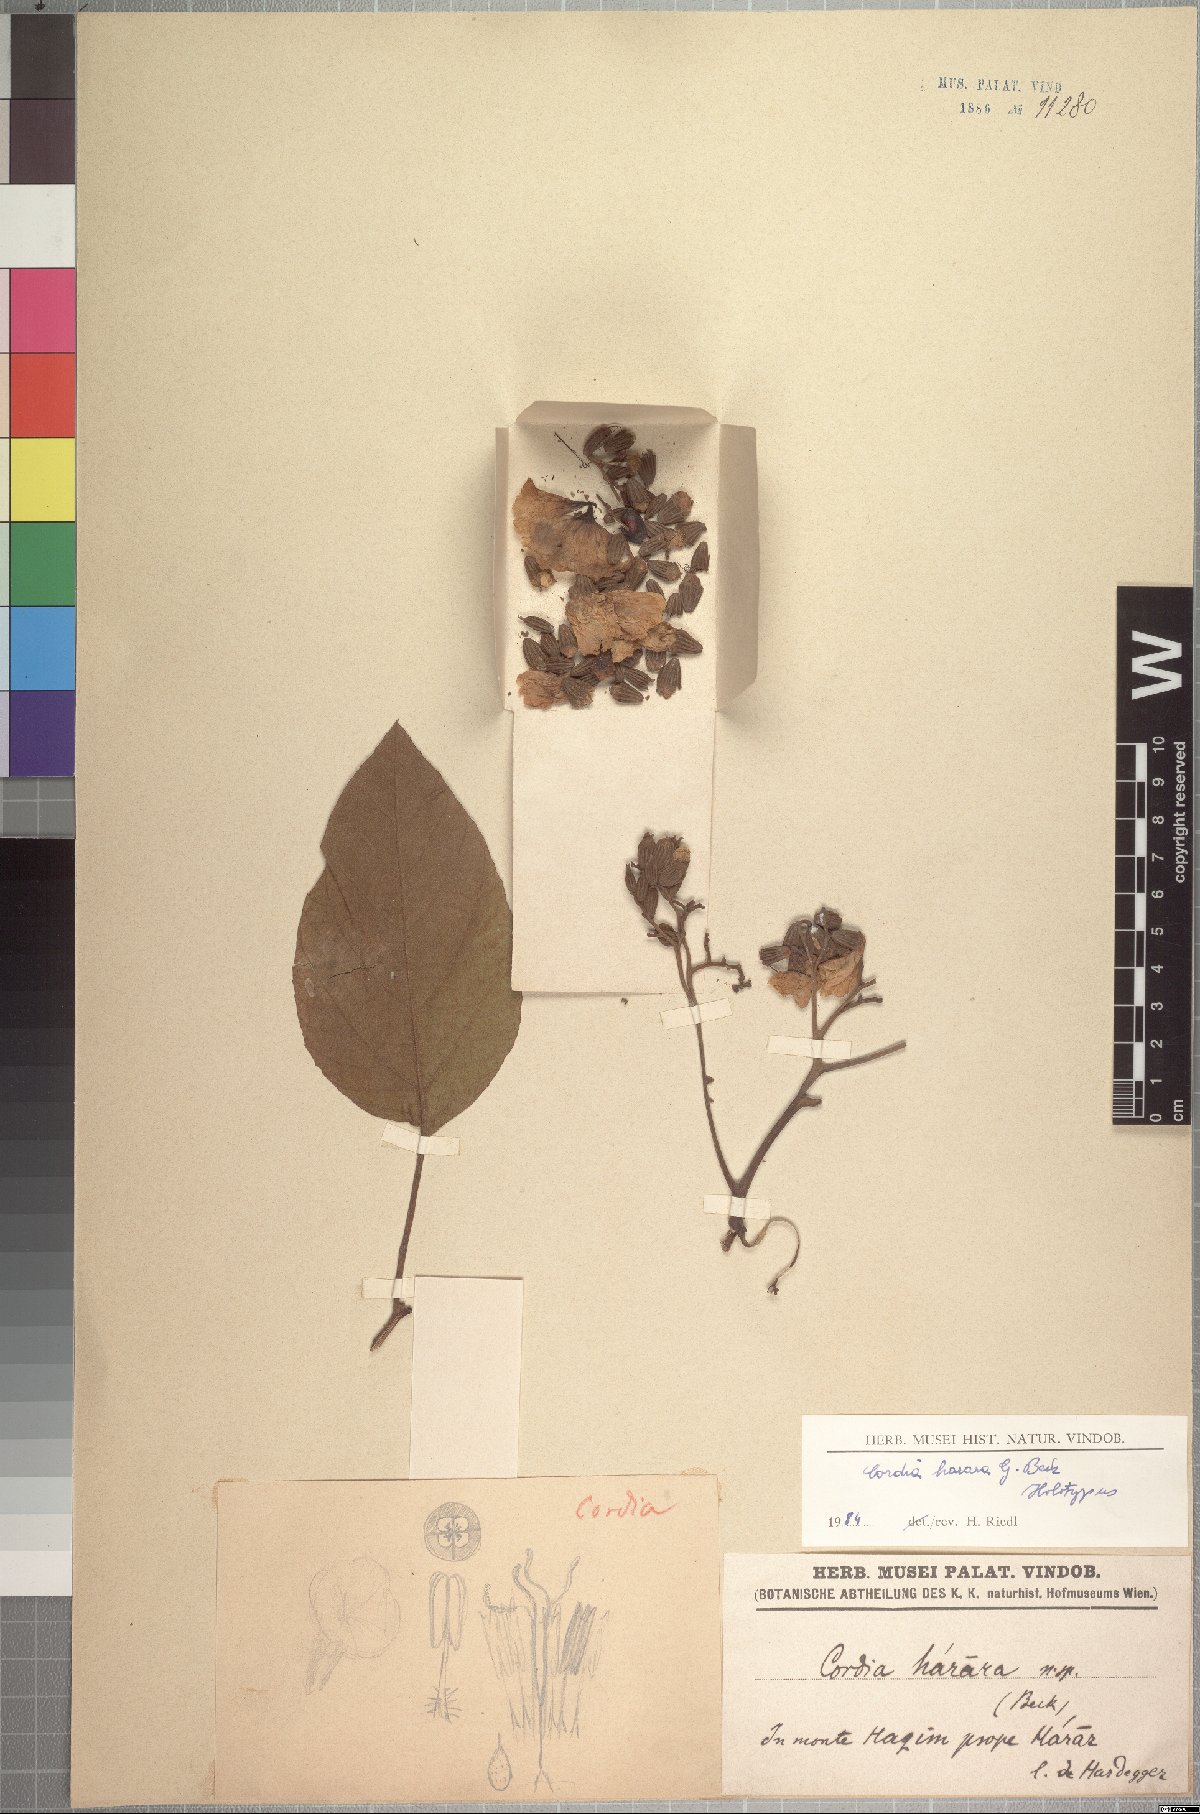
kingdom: Plantae
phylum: Tracheophyta
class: Magnoliopsida
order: Boraginales
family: Cordiaceae
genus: Cordia
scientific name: Cordia africana
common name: Large-leaved cordia
